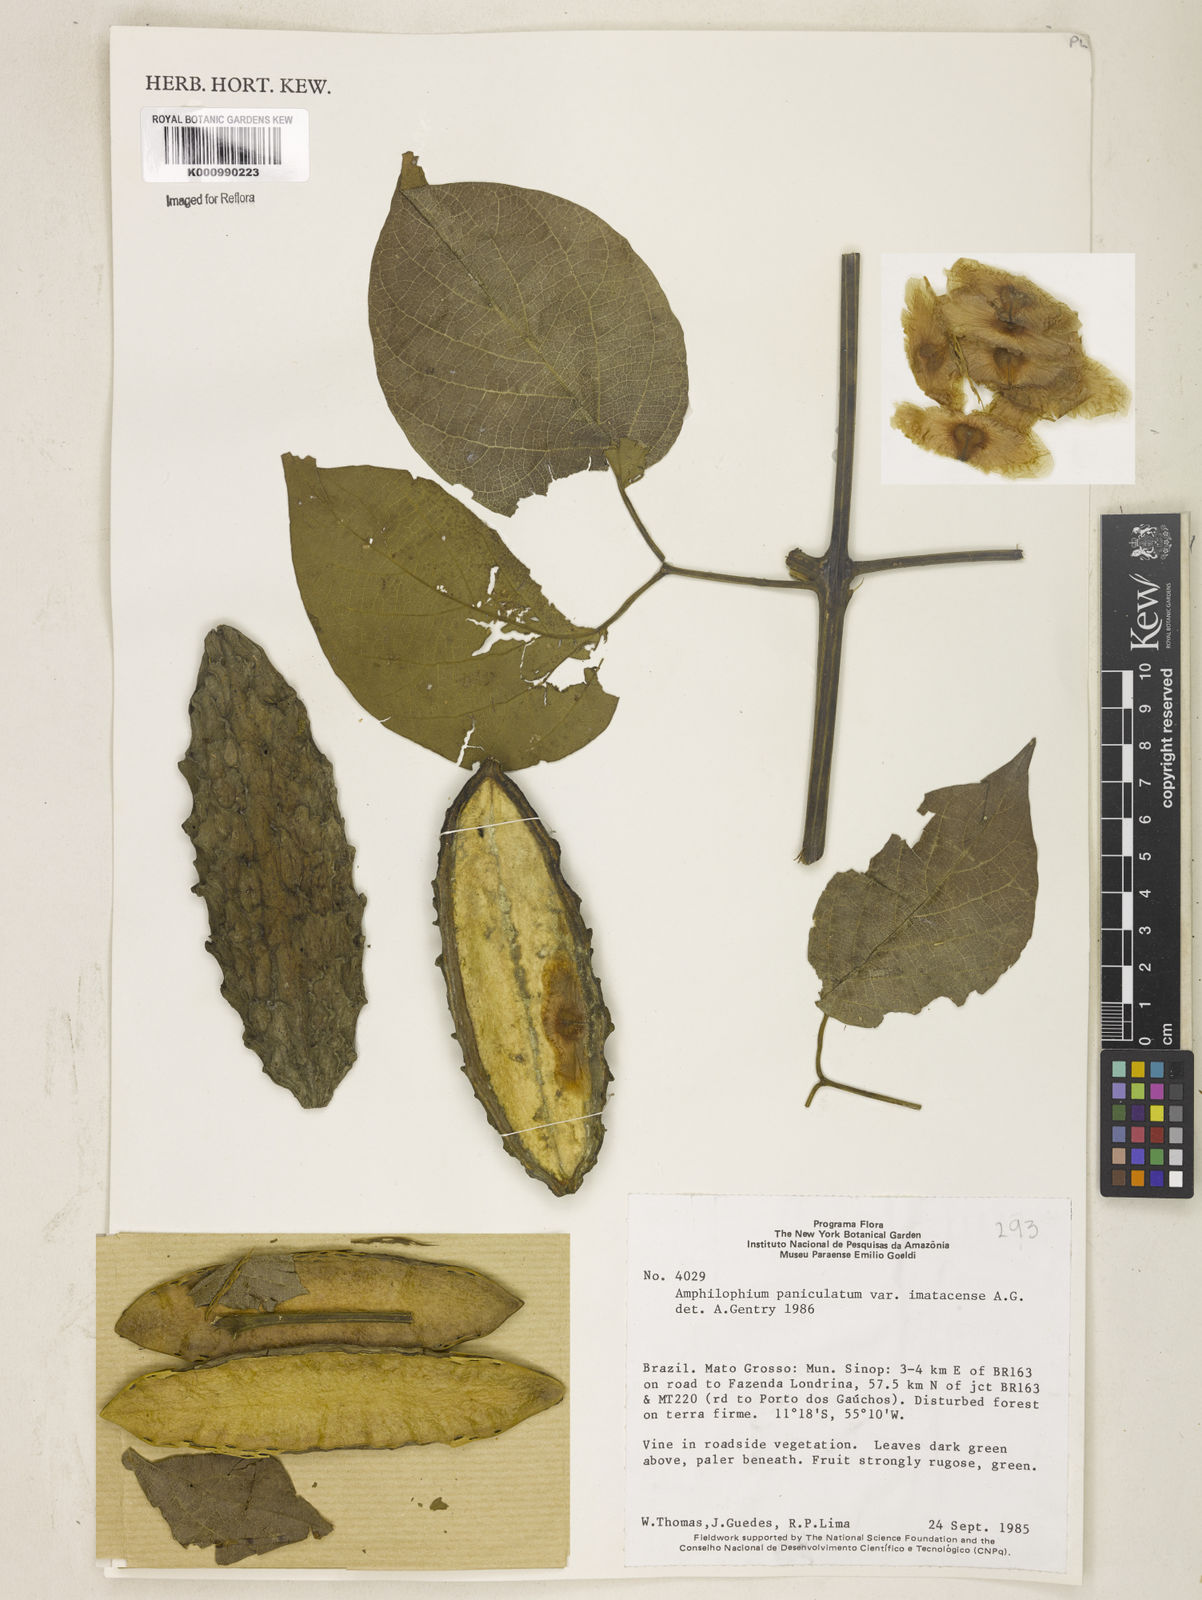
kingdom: Plantae
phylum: Tracheophyta
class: Magnoliopsida
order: Lamiales
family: Bignoniaceae
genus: Amphilophium
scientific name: Amphilophium paniculatum
